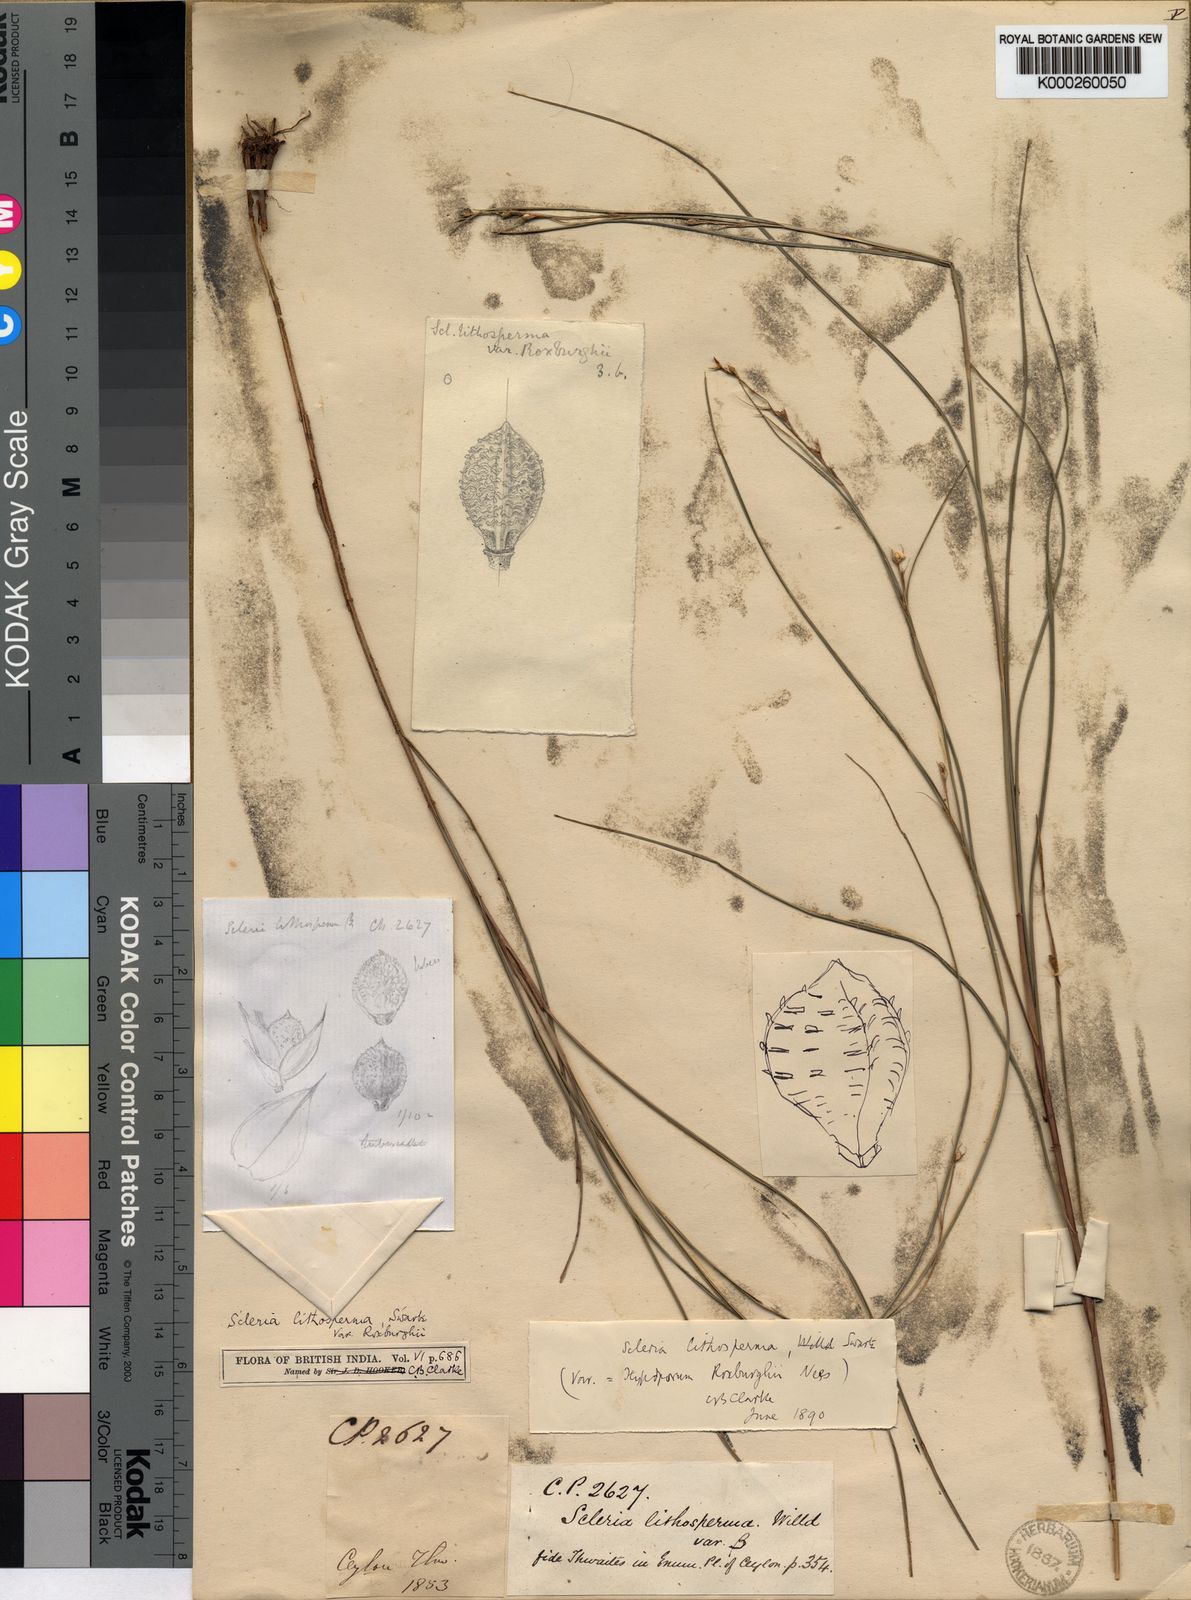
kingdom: Plantae
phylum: Tracheophyta
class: Liliopsida
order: Poales
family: Cyperaceae
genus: Scleria
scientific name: Scleria lithosperma
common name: Florida keys nut-rush
